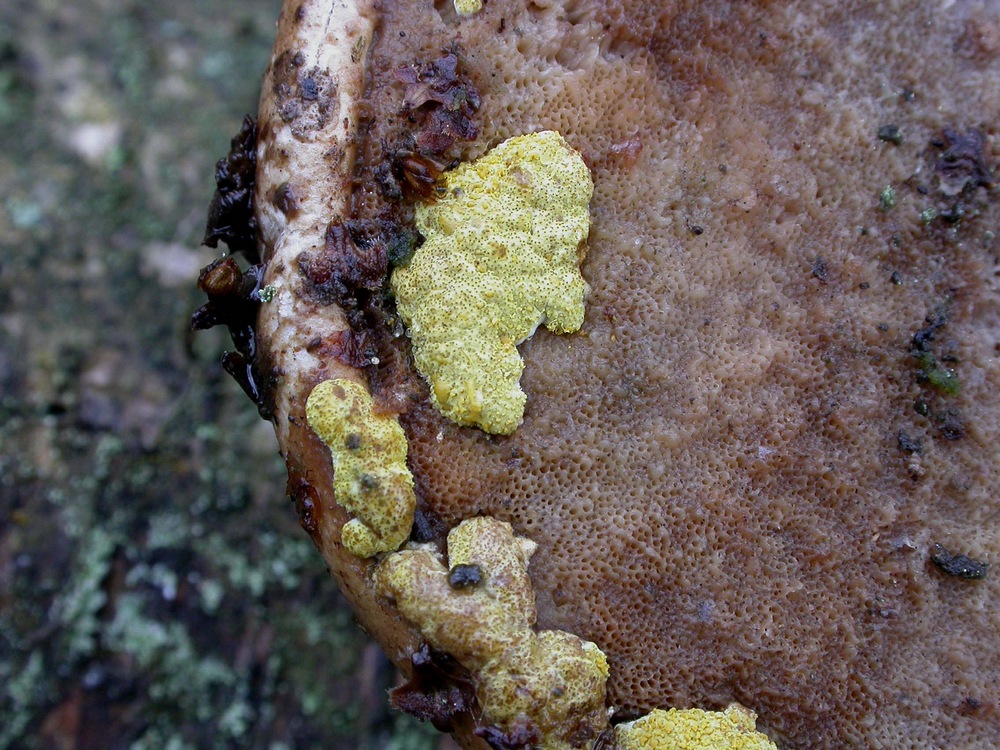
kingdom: Fungi
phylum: Ascomycota
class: Sordariomycetes
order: Hypocreales
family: Hypocreaceae
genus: Trichoderma
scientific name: Trichoderma pulvinatum
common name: snyltende kødkerne
